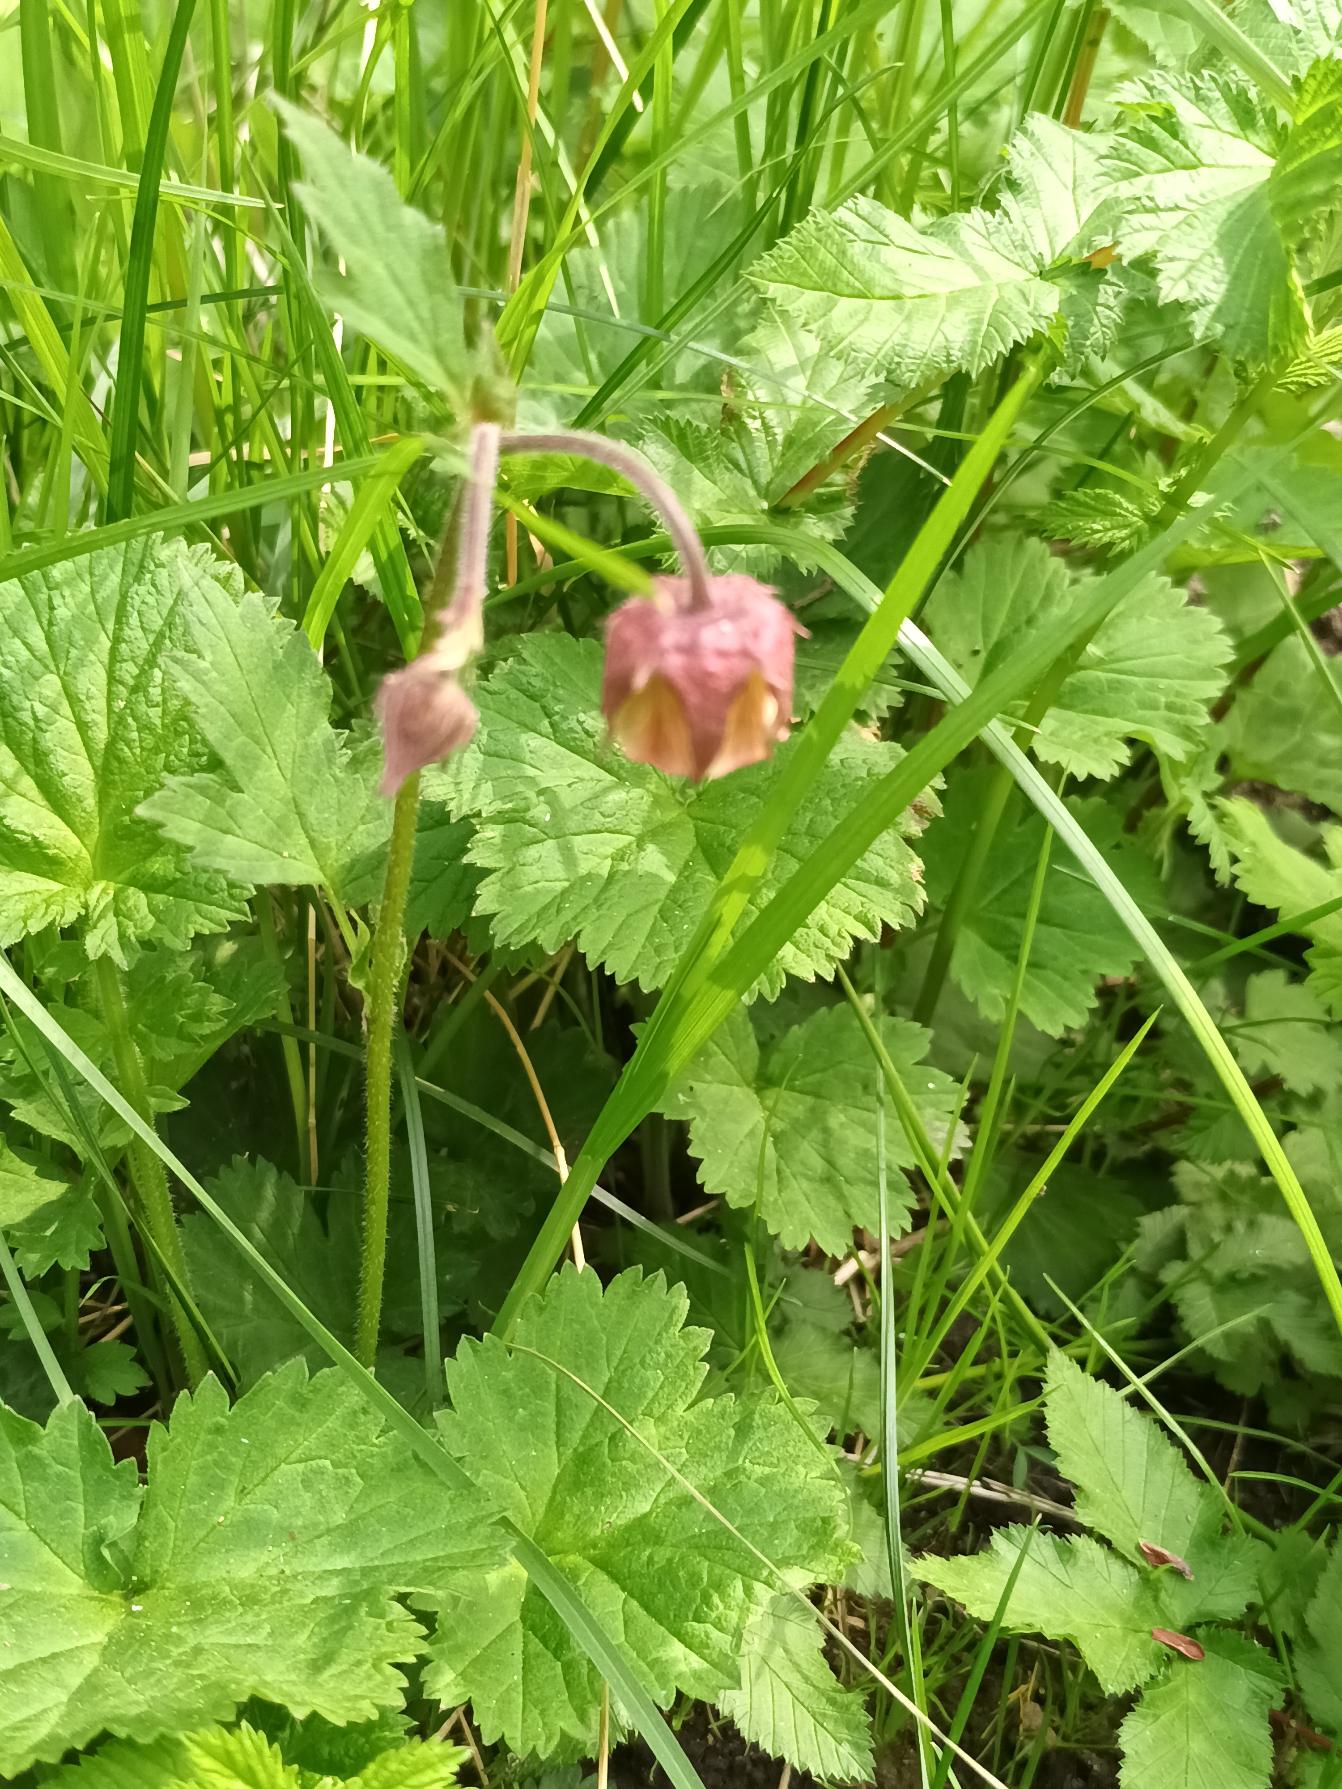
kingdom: Plantae
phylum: Tracheophyta
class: Magnoliopsida
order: Rosales
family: Rosaceae
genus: Geum
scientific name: Geum rivale
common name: Eng-nellikerod
